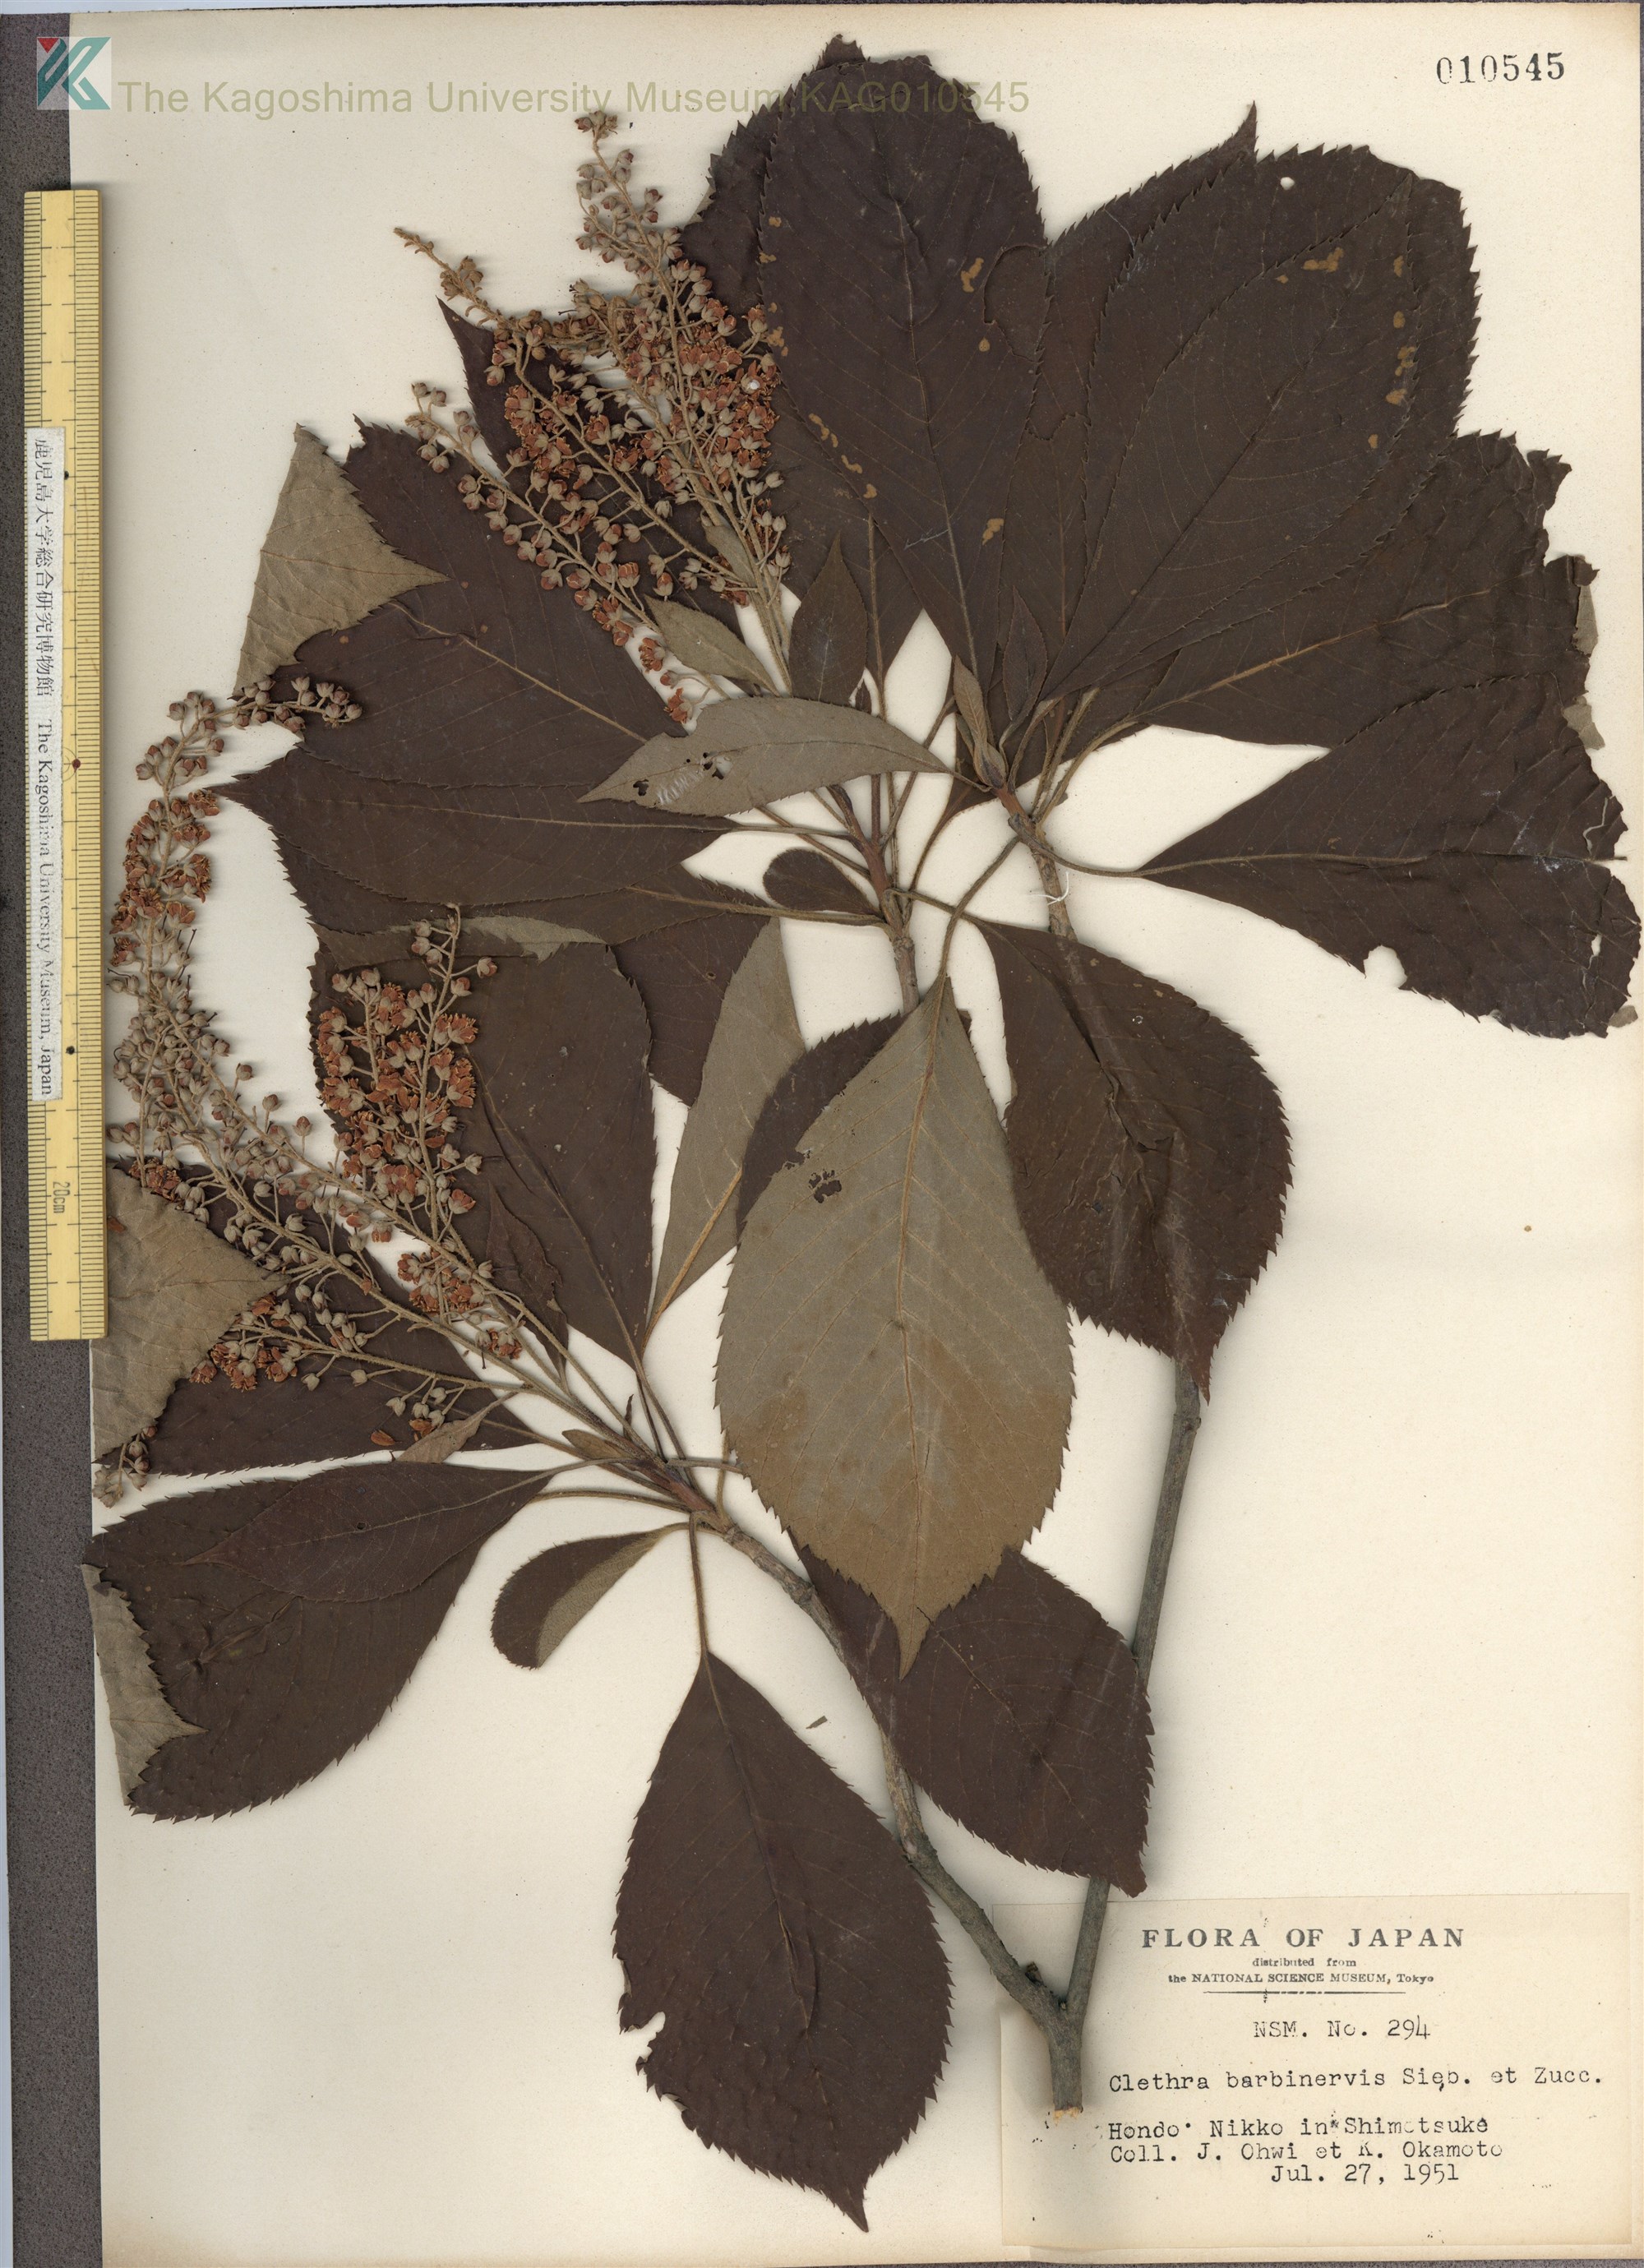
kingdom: Plantae
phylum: Tracheophyta
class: Magnoliopsida
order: Ericales
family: Clethraceae
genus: Clethra
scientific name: Clethra barbinervis
